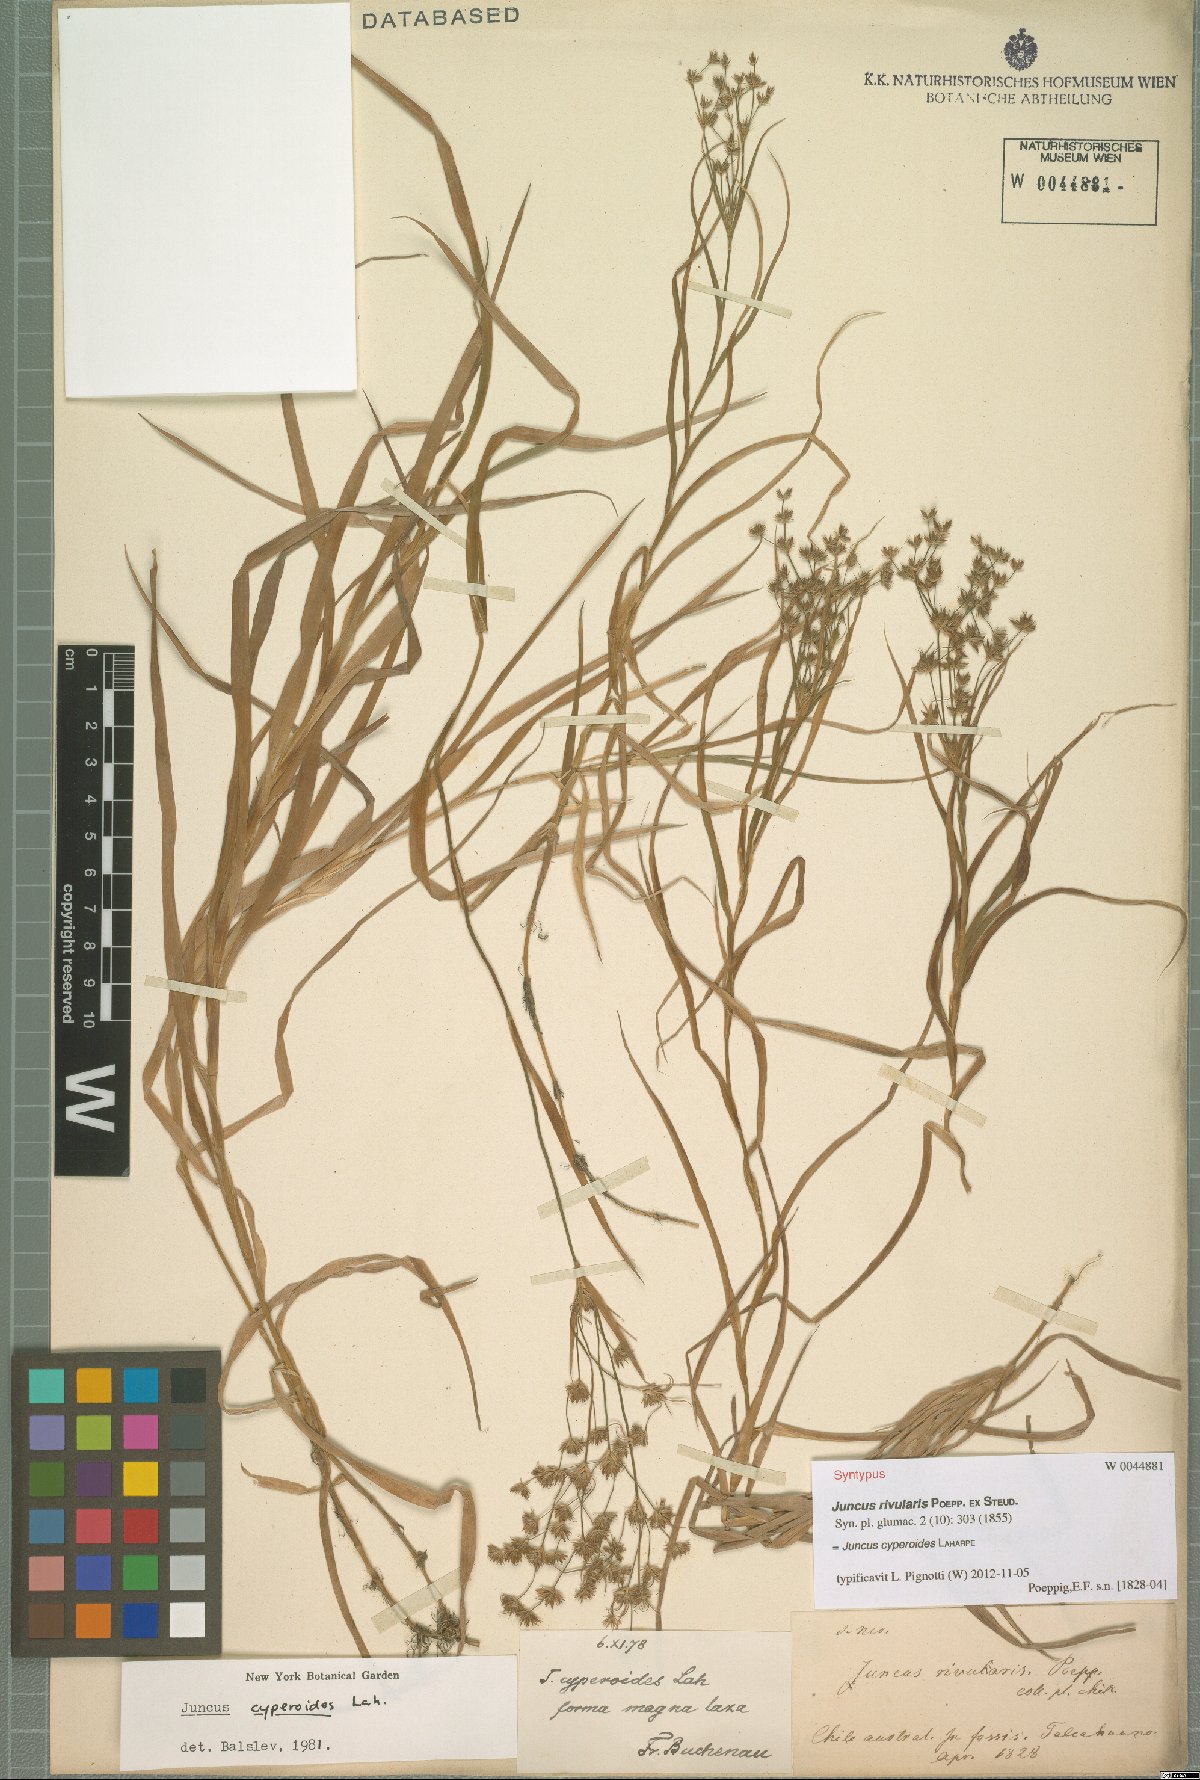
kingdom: Plantae
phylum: Tracheophyta
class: Liliopsida
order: Poales
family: Juncaceae
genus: Juncus
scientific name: Juncus cyperoides
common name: Forbestown rush
